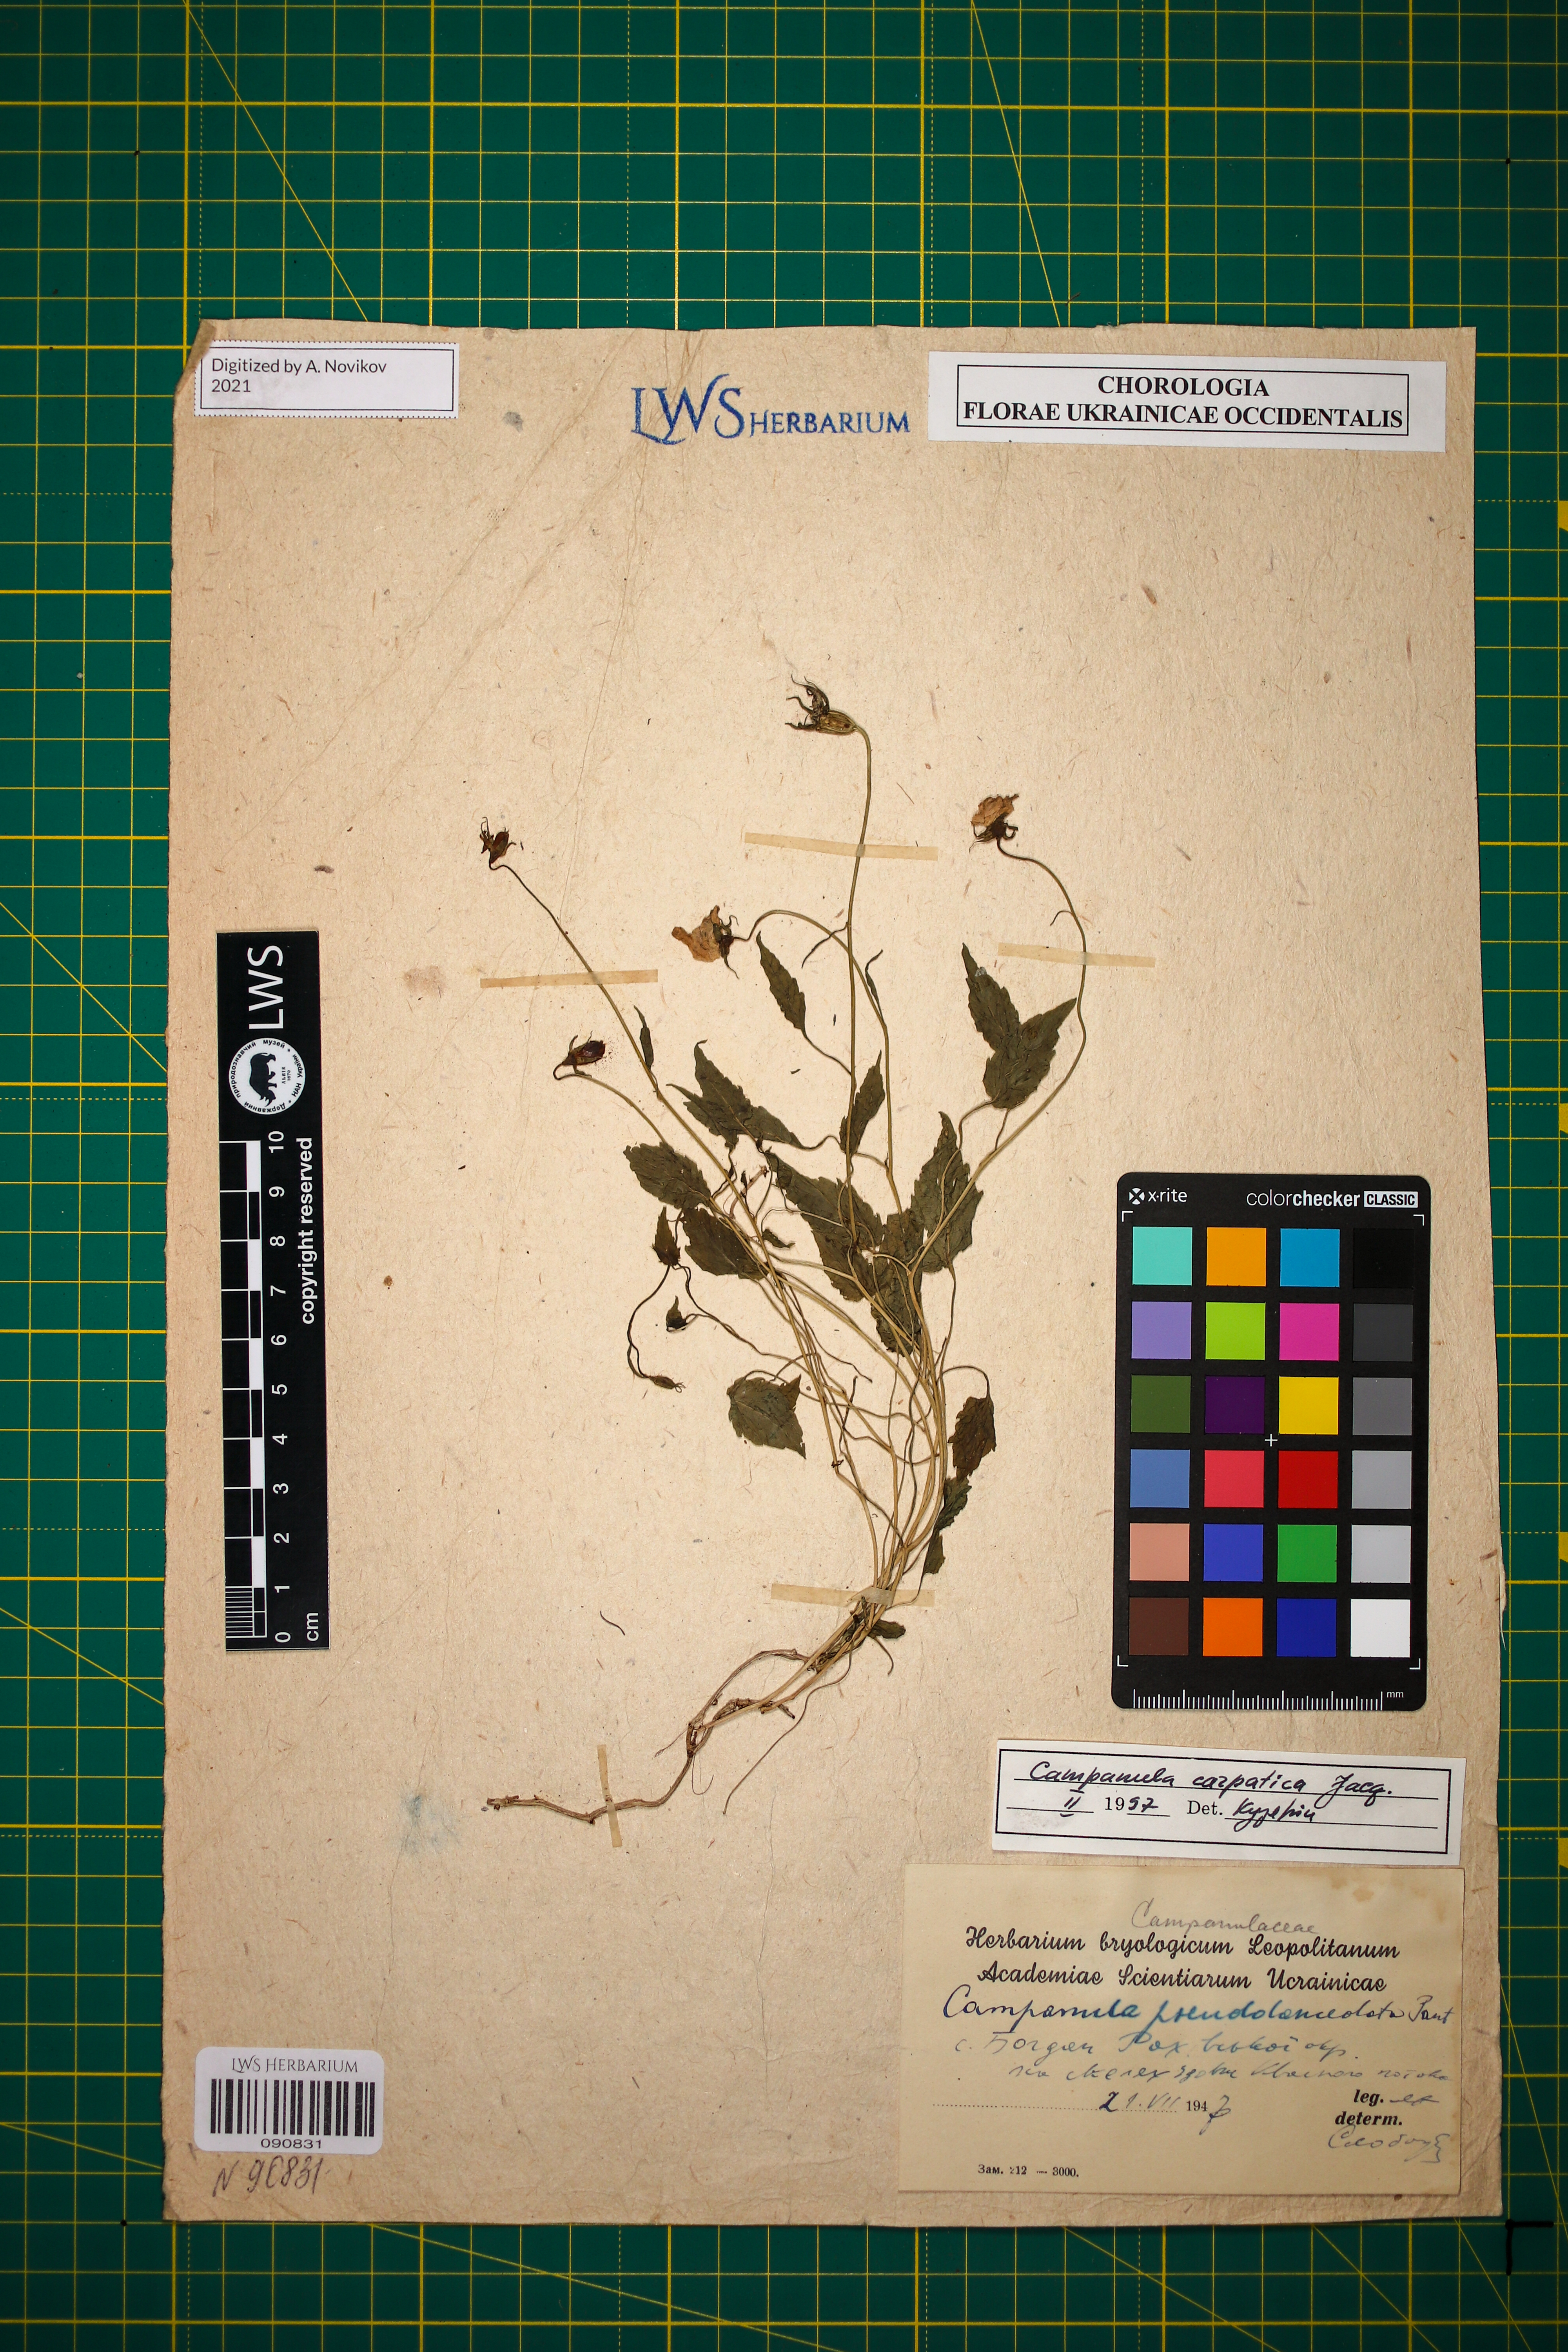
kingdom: Plantae
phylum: Tracheophyta
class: Magnoliopsida
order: Asterales
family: Campanulaceae
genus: Campanula
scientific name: Campanula carpatica
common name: Tussock bellflower
